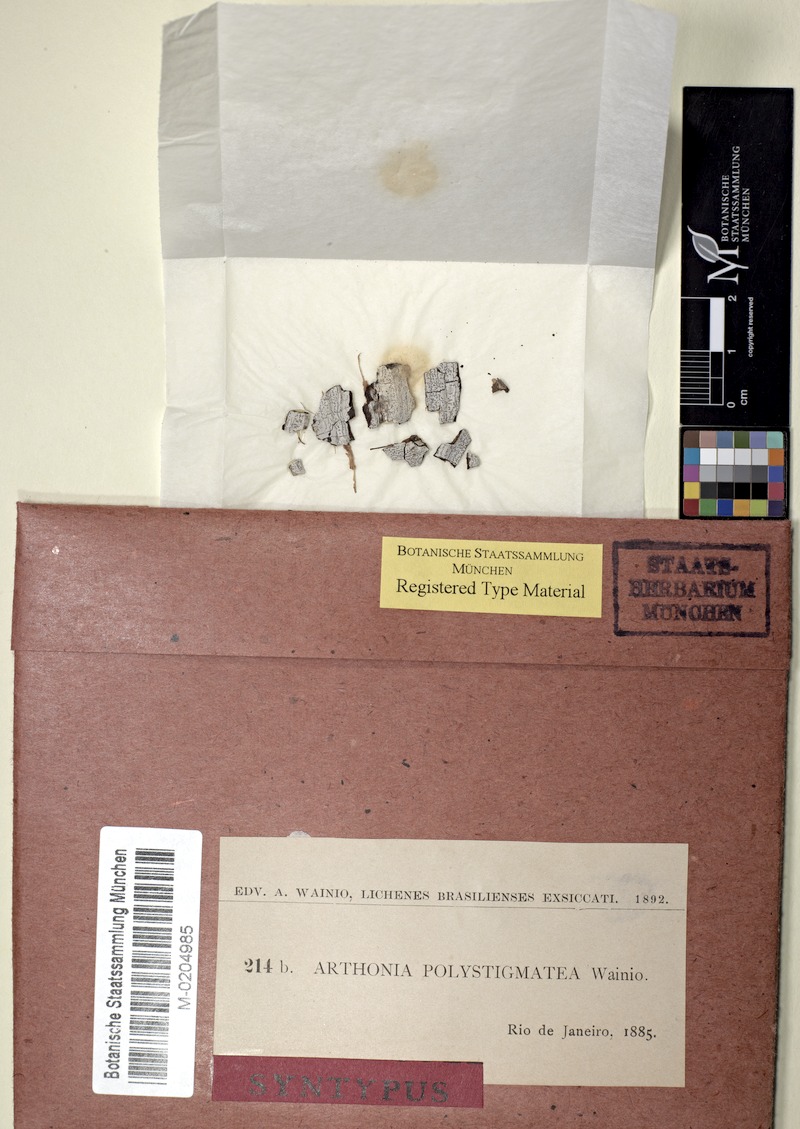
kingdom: Fungi
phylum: Ascomycota
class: Arthoniomycetes
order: Arthoniales
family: Arthoniaceae
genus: Arthonia
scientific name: Arthonia
